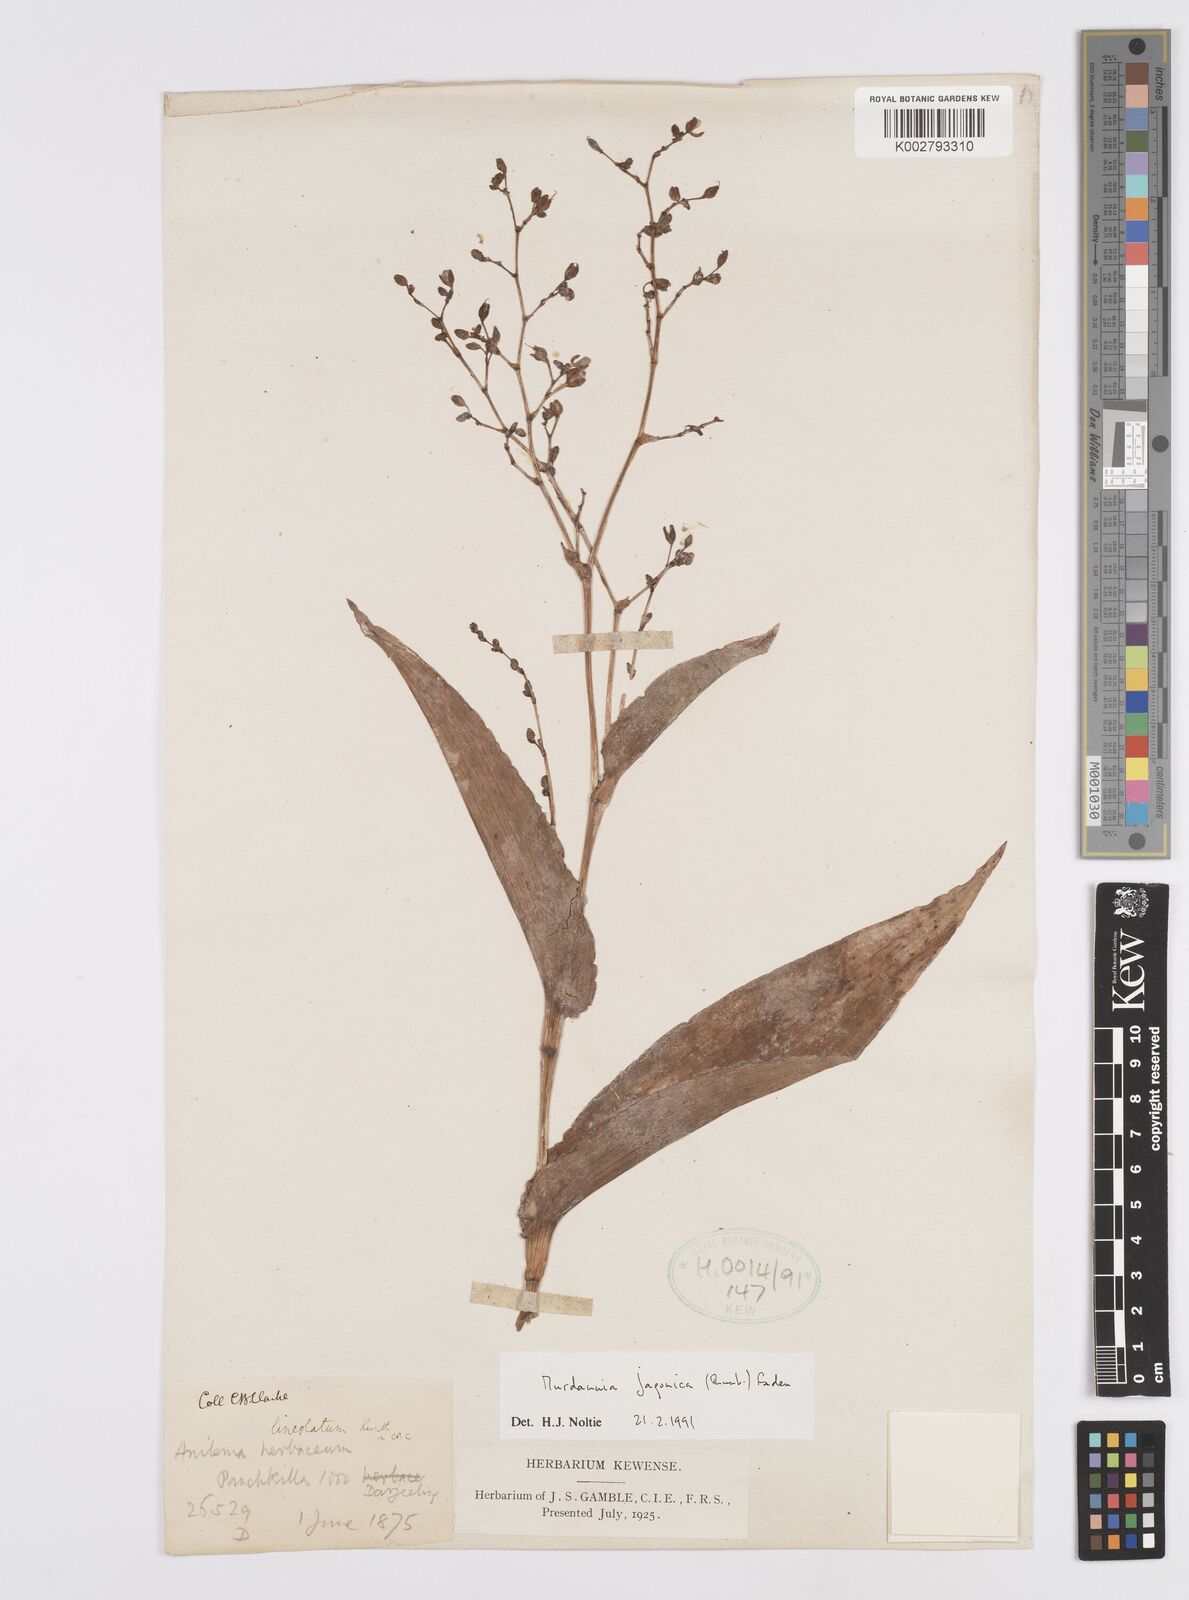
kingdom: Plantae
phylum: Tracheophyta
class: Liliopsida
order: Commelinales
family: Commelinaceae
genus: Murdannia
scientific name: Murdannia japonica
